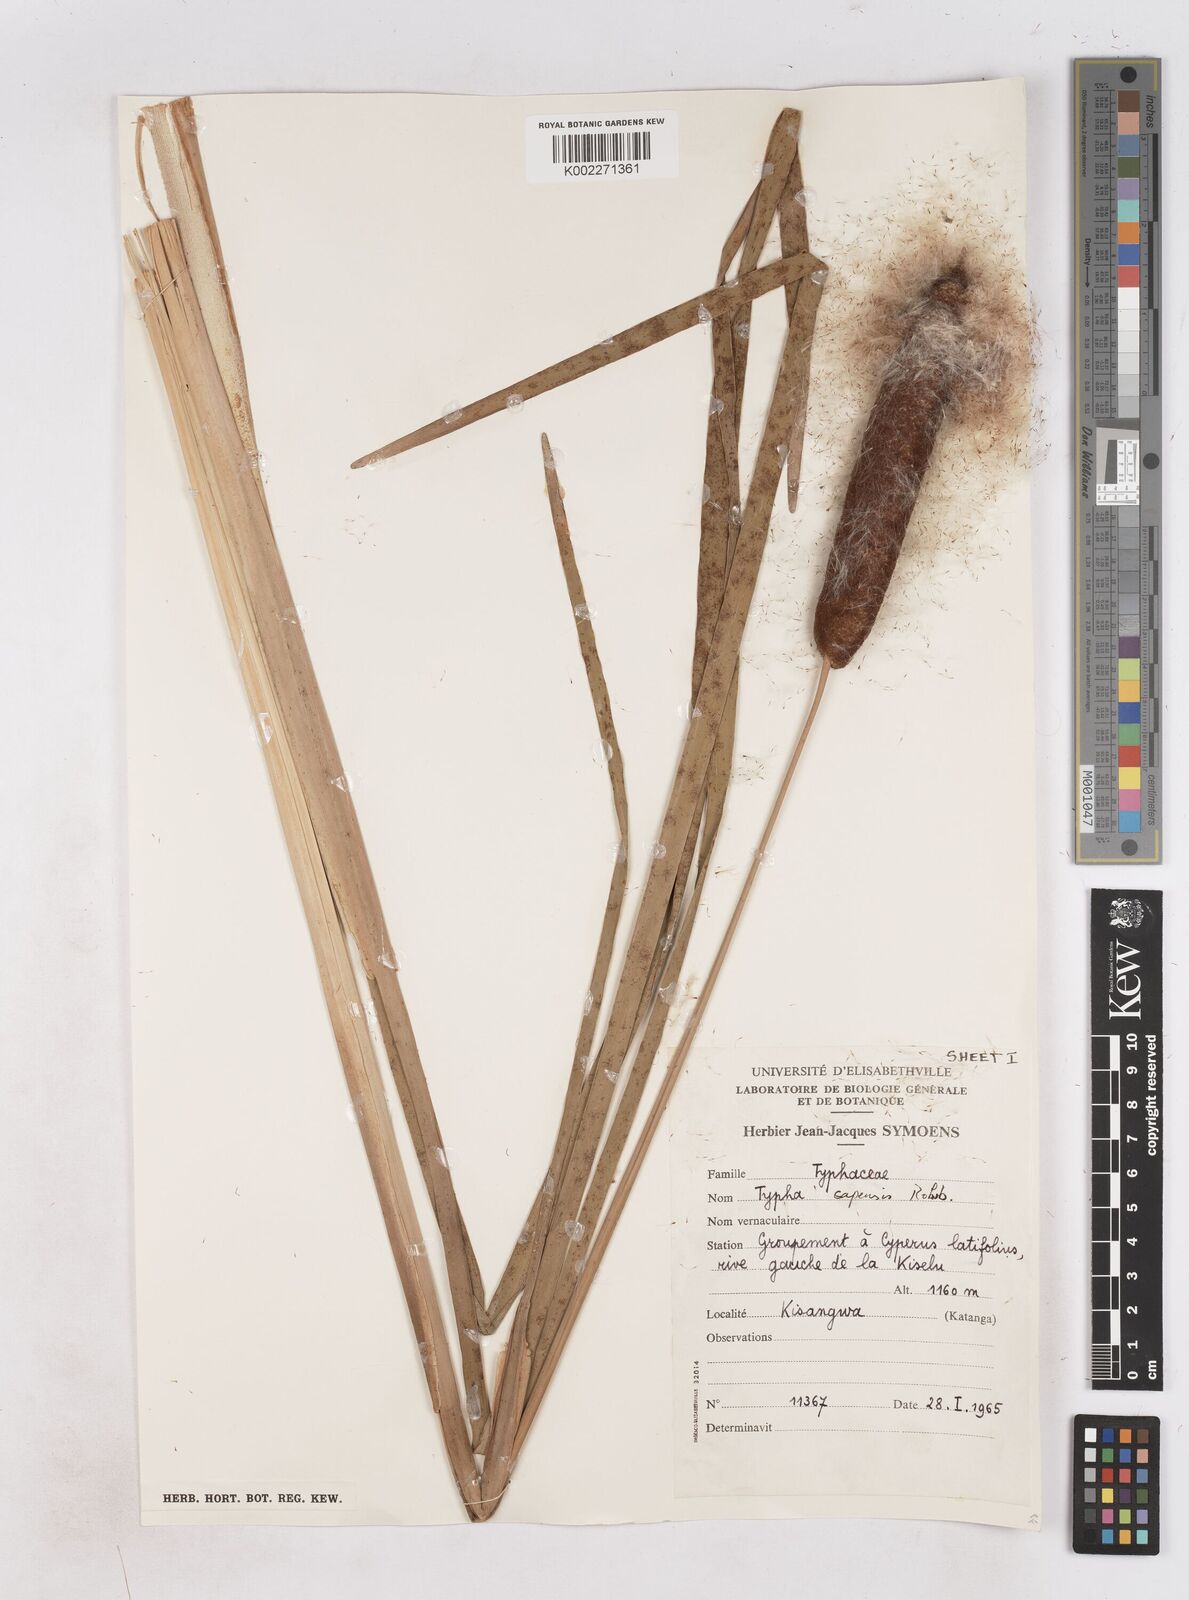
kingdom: Plantae
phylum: Tracheophyta
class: Liliopsida
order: Poales
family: Typhaceae
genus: Typha
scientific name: Typha capensis
